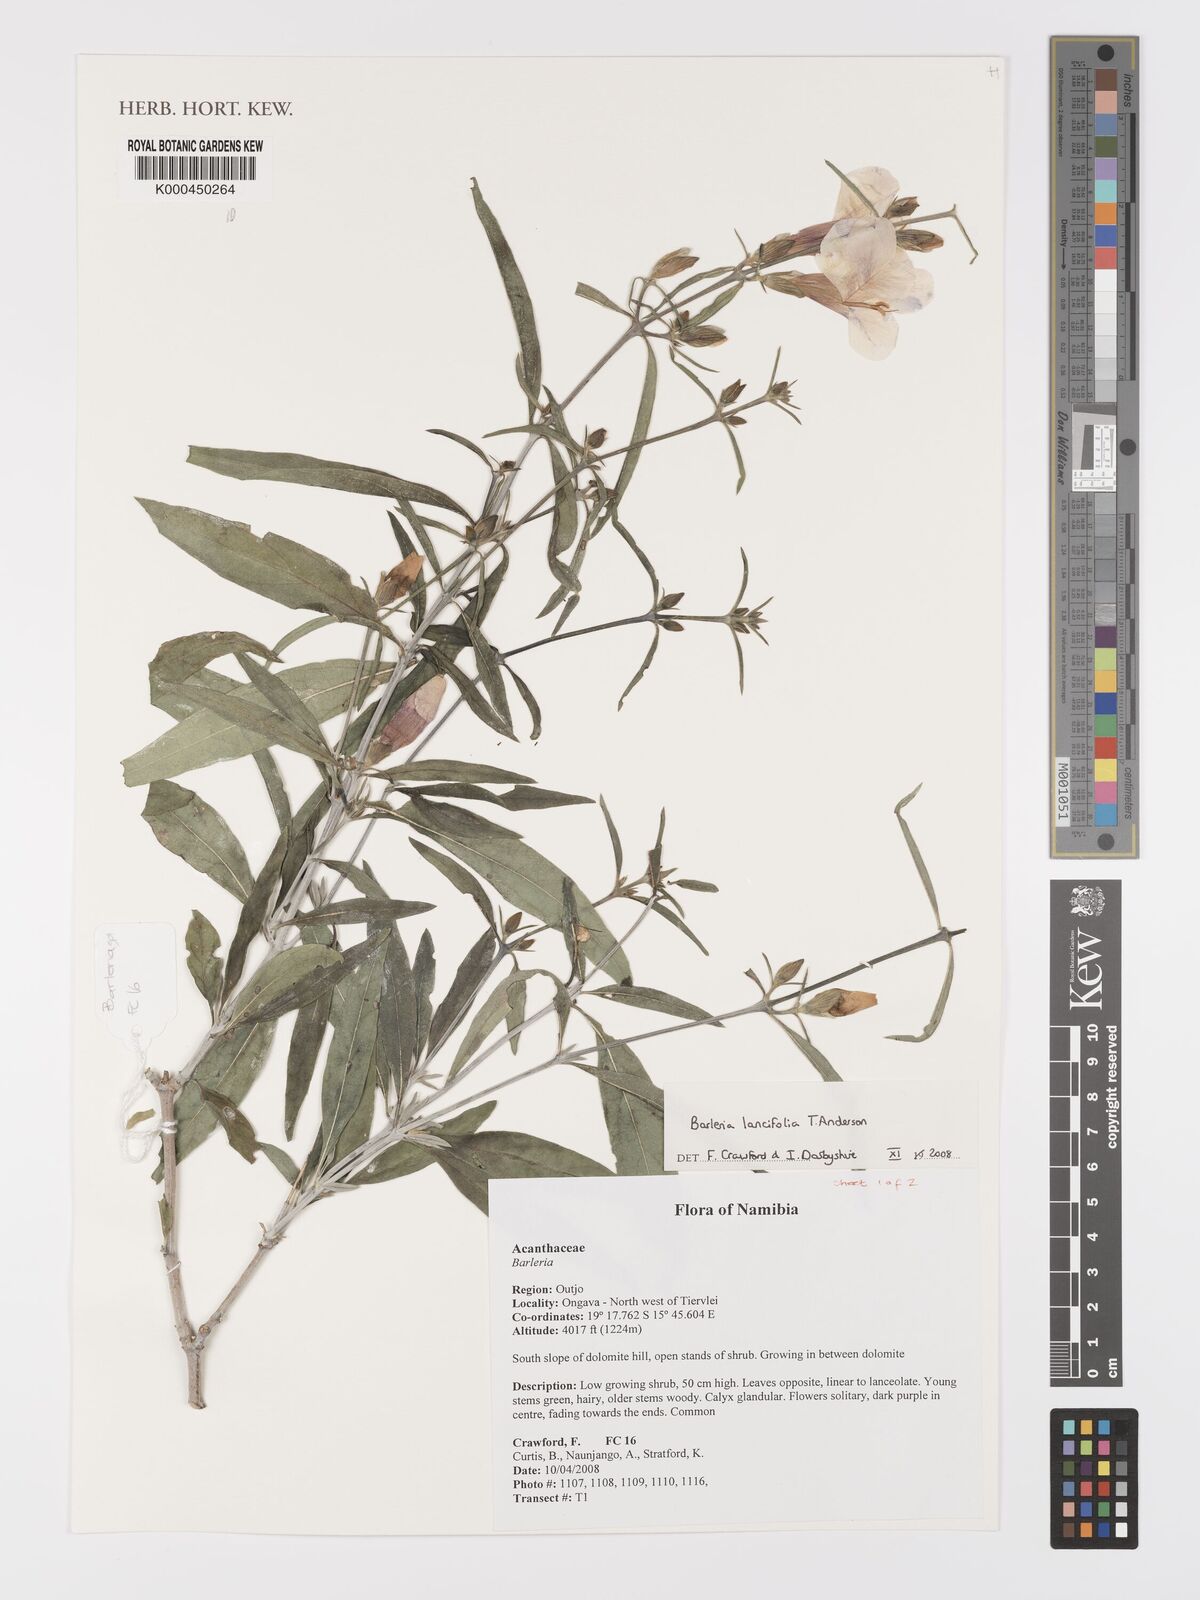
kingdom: Plantae
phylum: Tracheophyta
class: Magnoliopsida
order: Lamiales
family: Acanthaceae
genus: Barleria
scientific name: Barleria lancifolia
